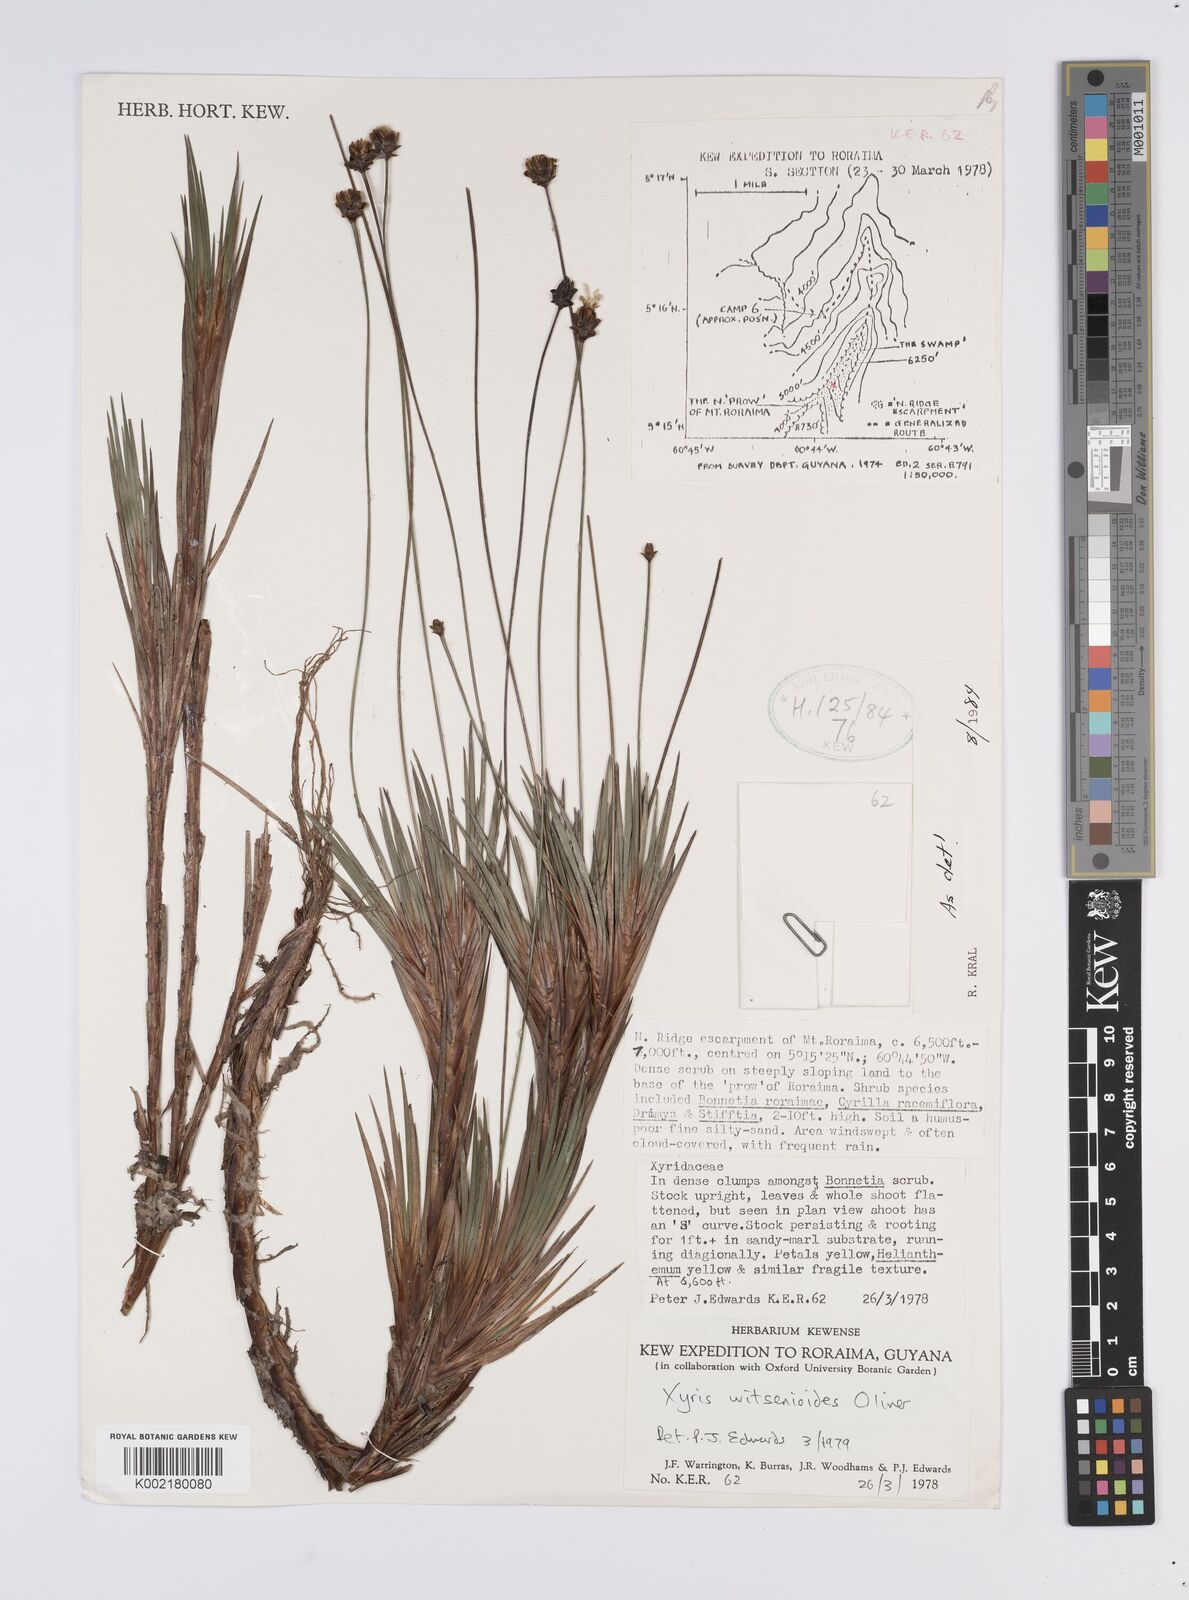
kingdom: Plantae
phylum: Tracheophyta
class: Liliopsida
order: Poales
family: Xyridaceae
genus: Xyris
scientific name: Xyris witsenioides
